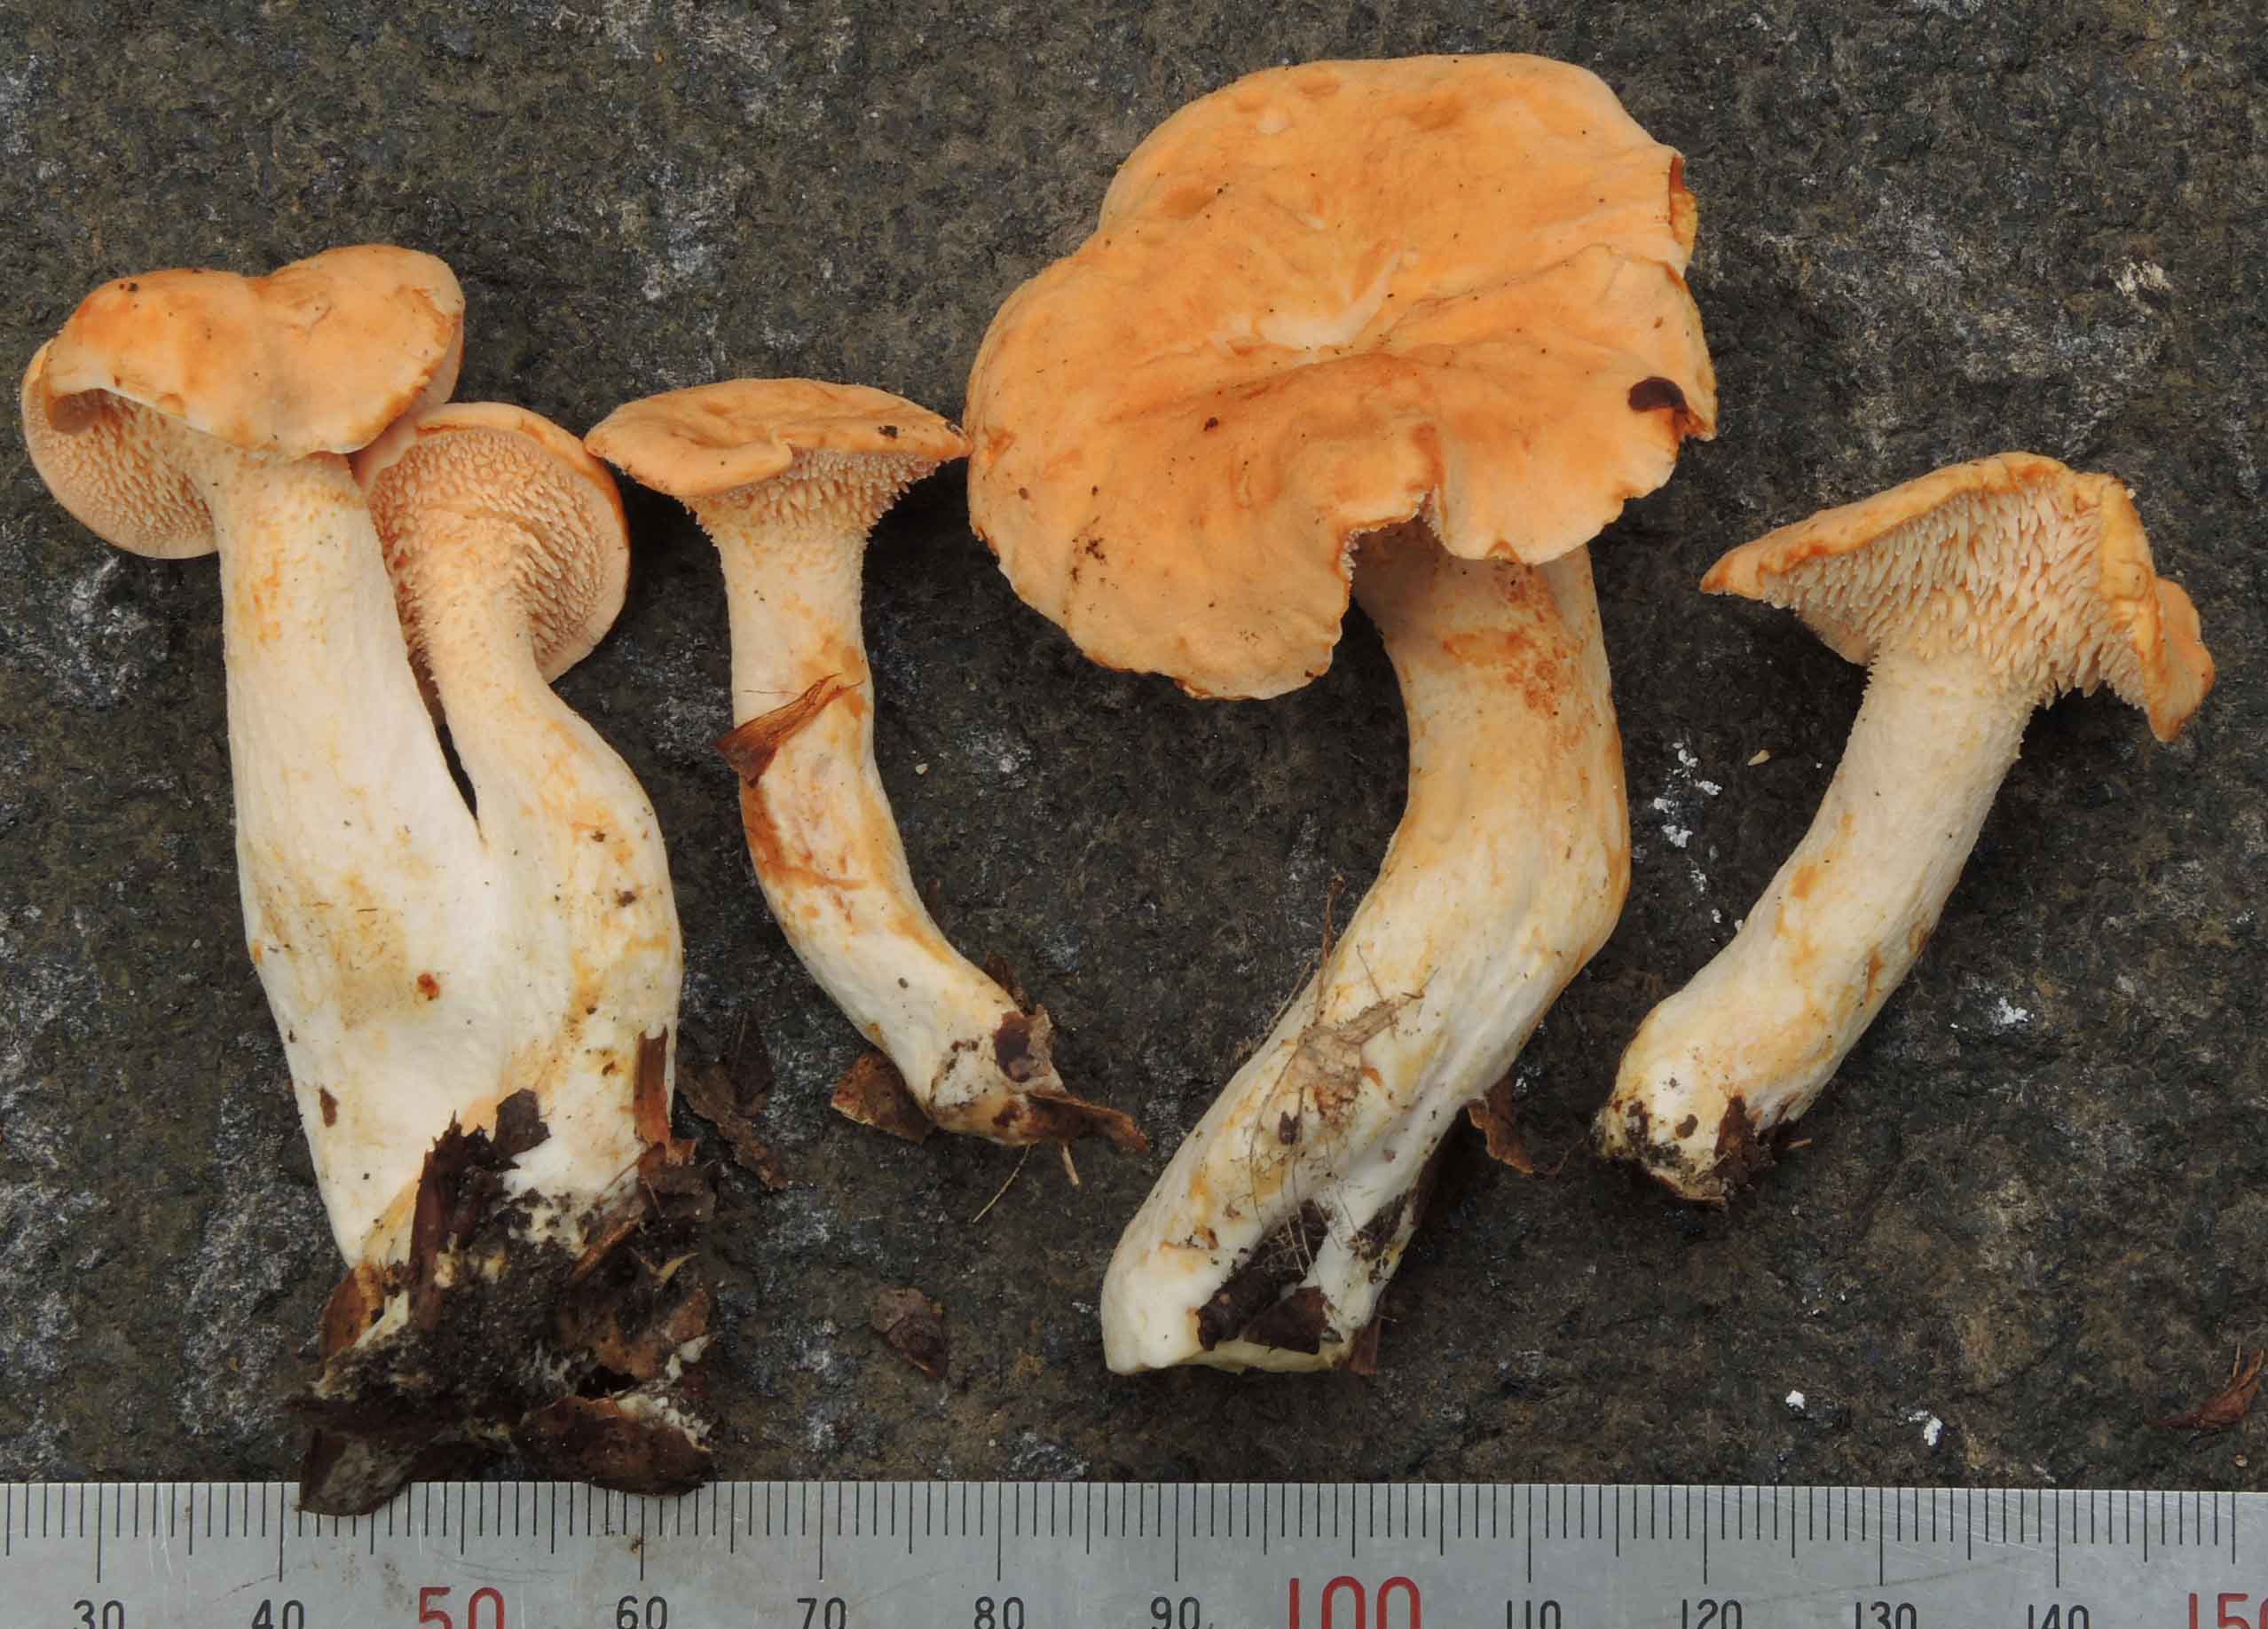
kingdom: Fungi
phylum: Basidiomycota
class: Agaricomycetes
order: Cantharellales
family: Hydnaceae
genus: Hydnum
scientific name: Hydnum umbilicatum
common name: navle-pigsvamp
